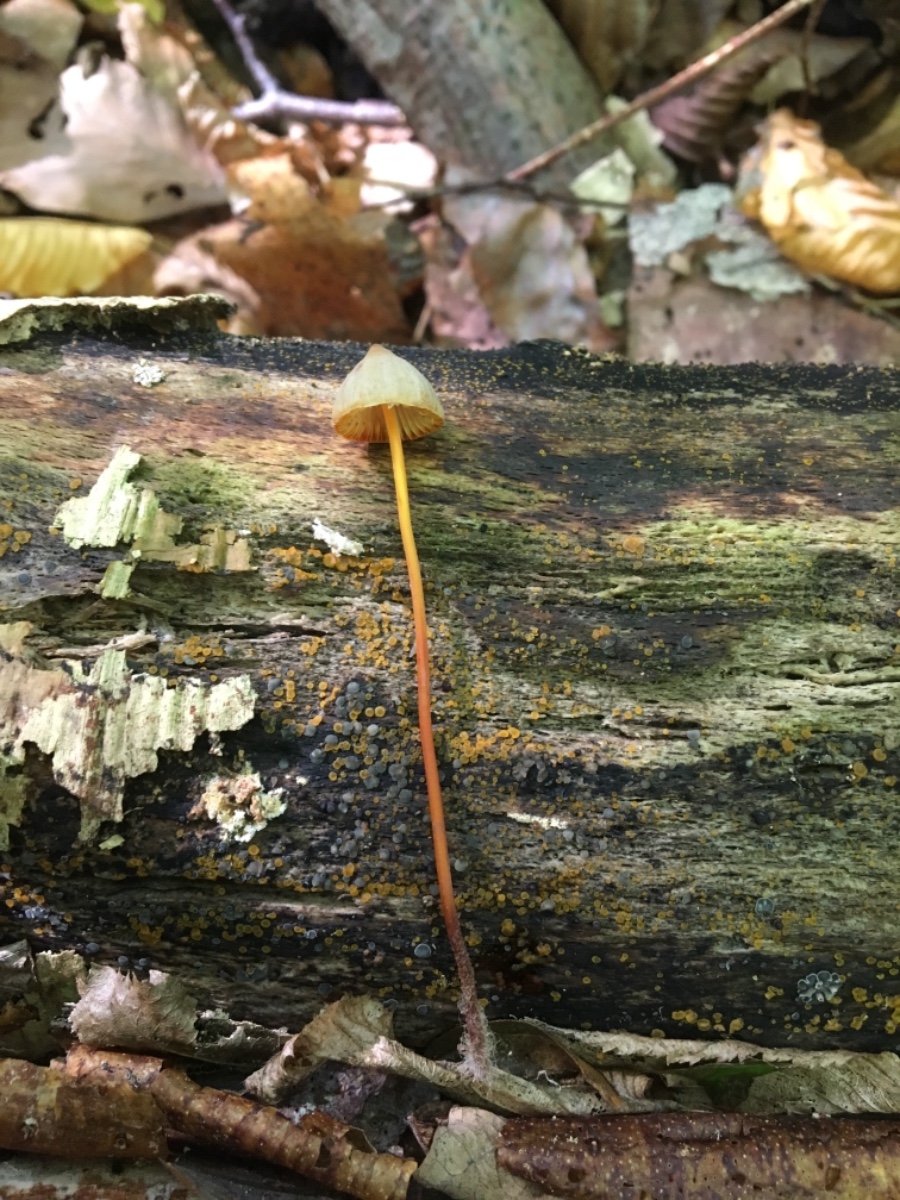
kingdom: Fungi
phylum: Basidiomycota
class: Agaricomycetes
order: Agaricales
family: Mycenaceae
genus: Mycena
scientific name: Mycena crocata
